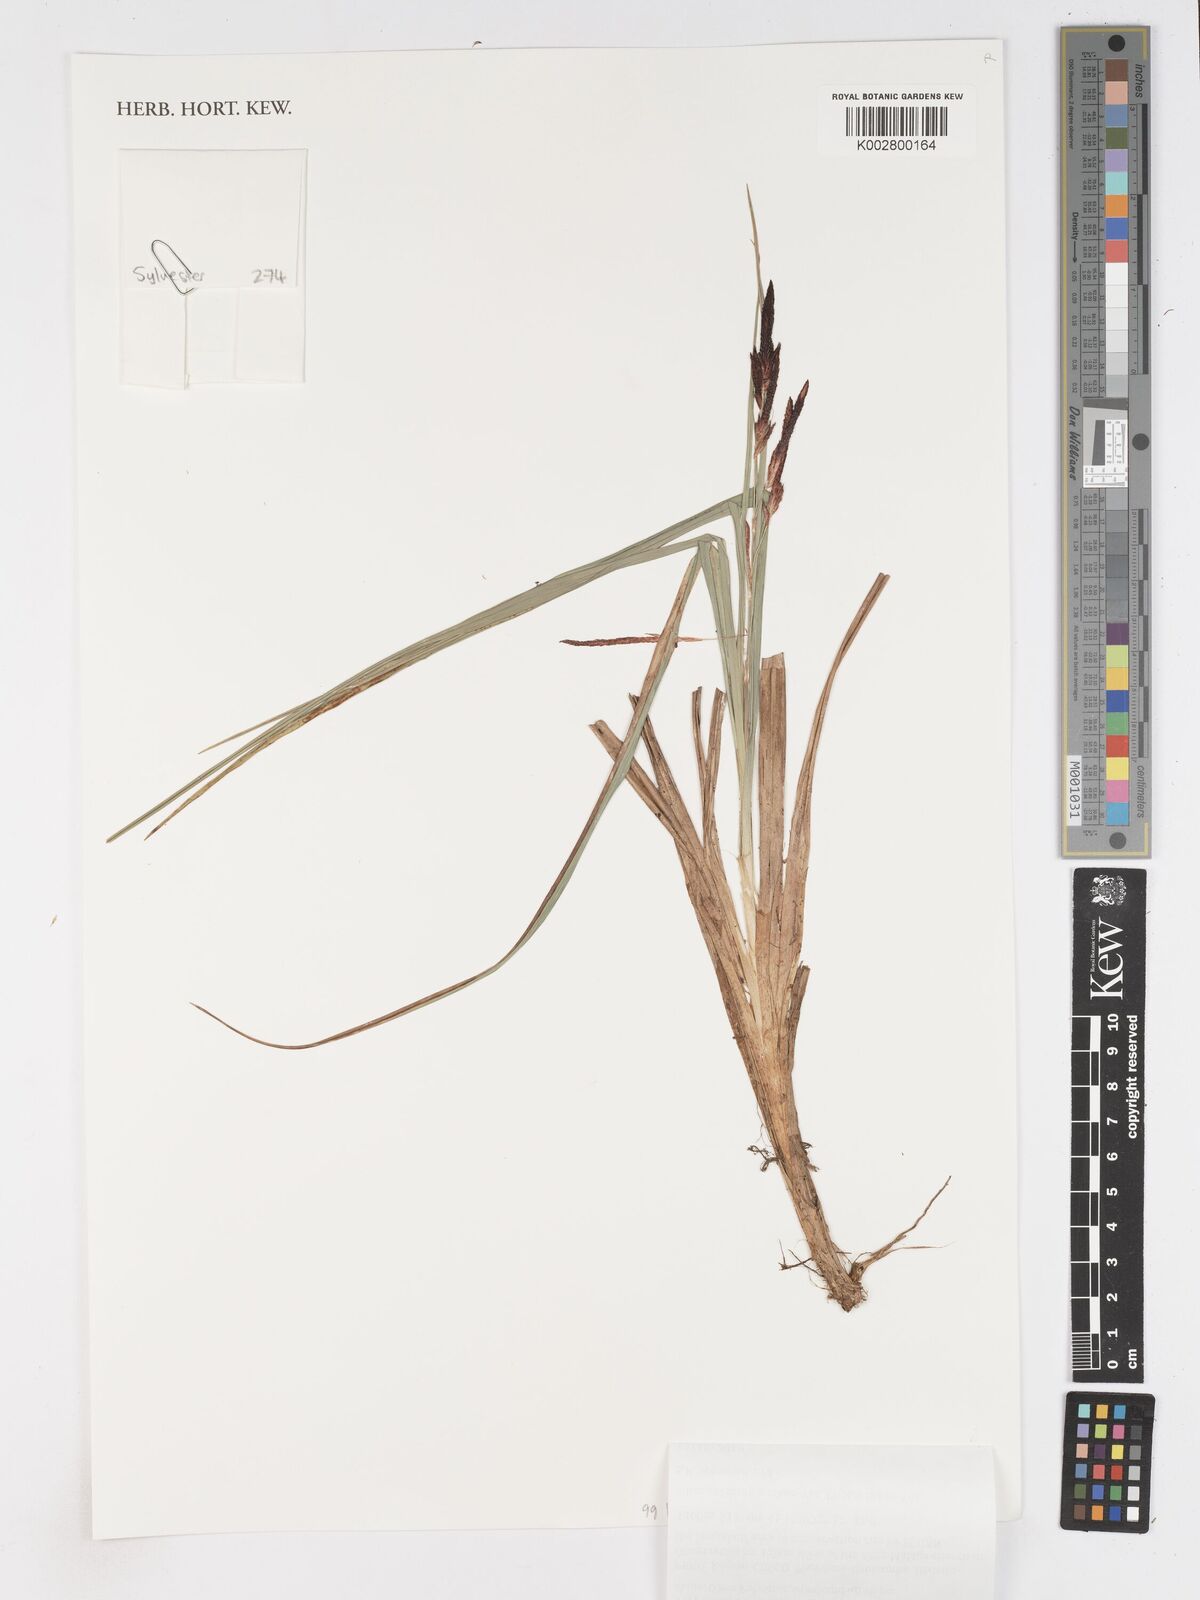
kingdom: Plantae
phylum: Tracheophyta
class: Liliopsida
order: Poales
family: Cyperaceae
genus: Carex
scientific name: Carex pichinchensis
